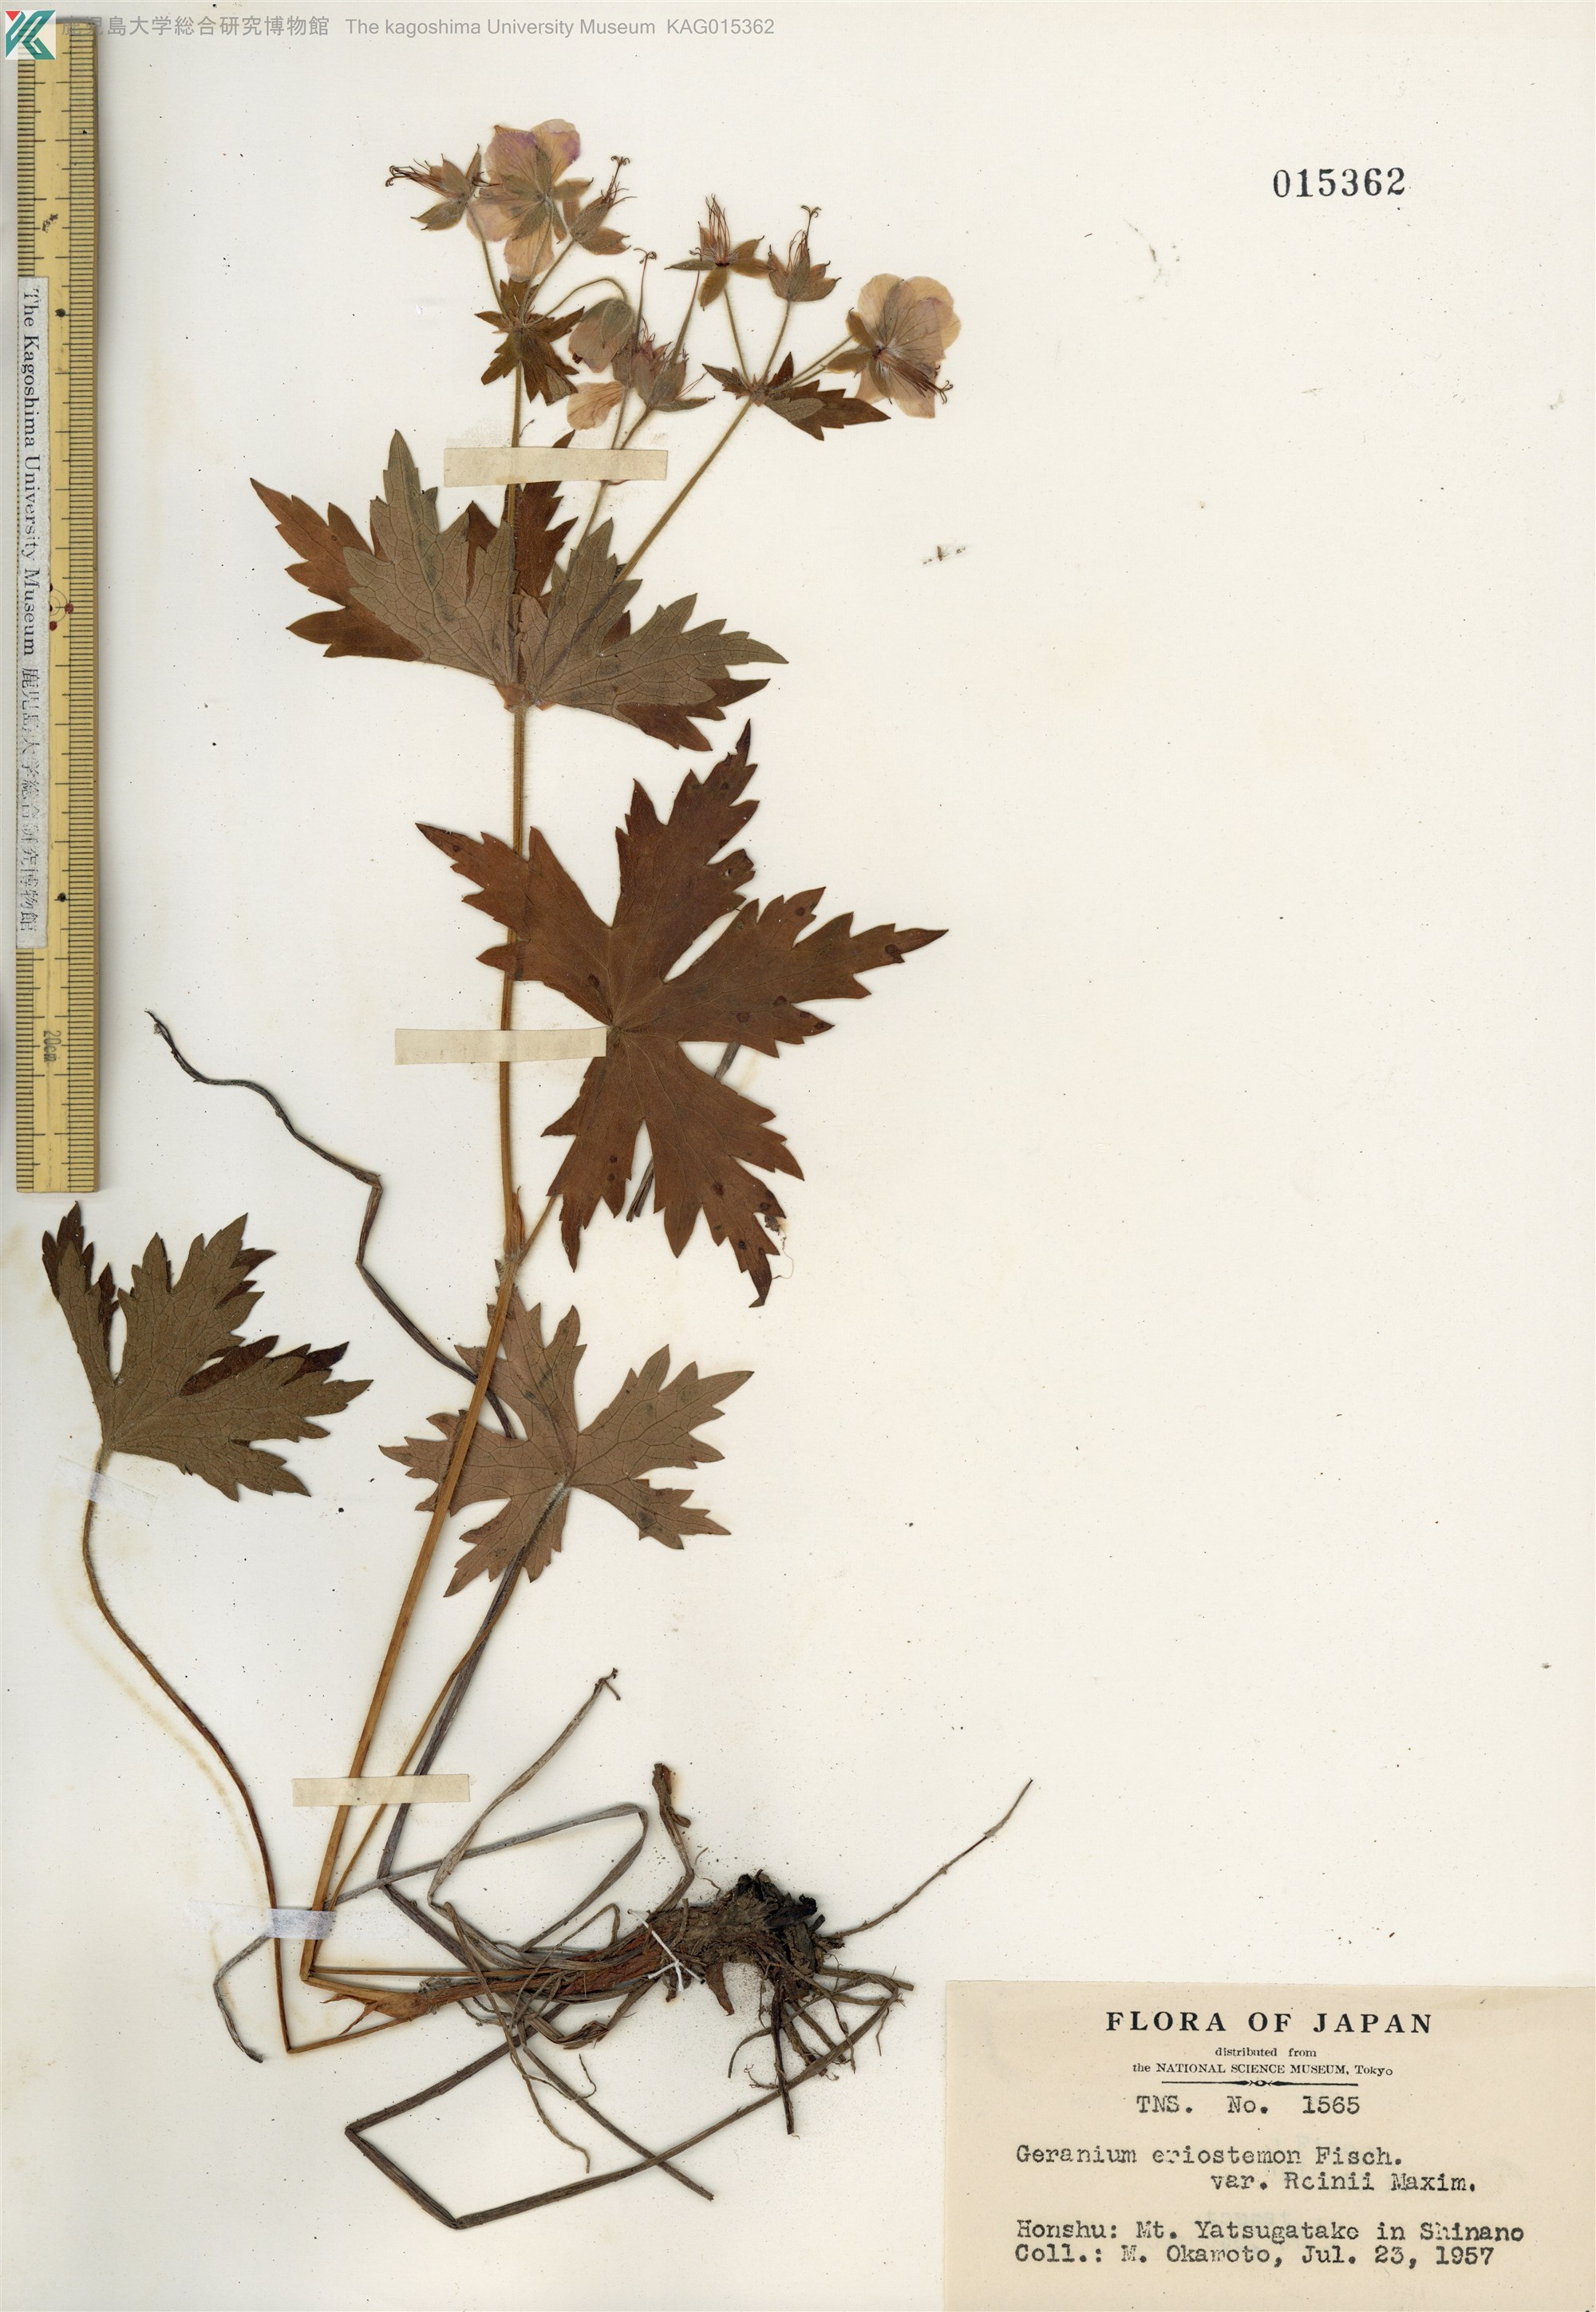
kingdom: Plantae
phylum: Tracheophyta
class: Magnoliopsida
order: Geraniales
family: Geraniaceae
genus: Geranium
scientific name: Geranium reinii
